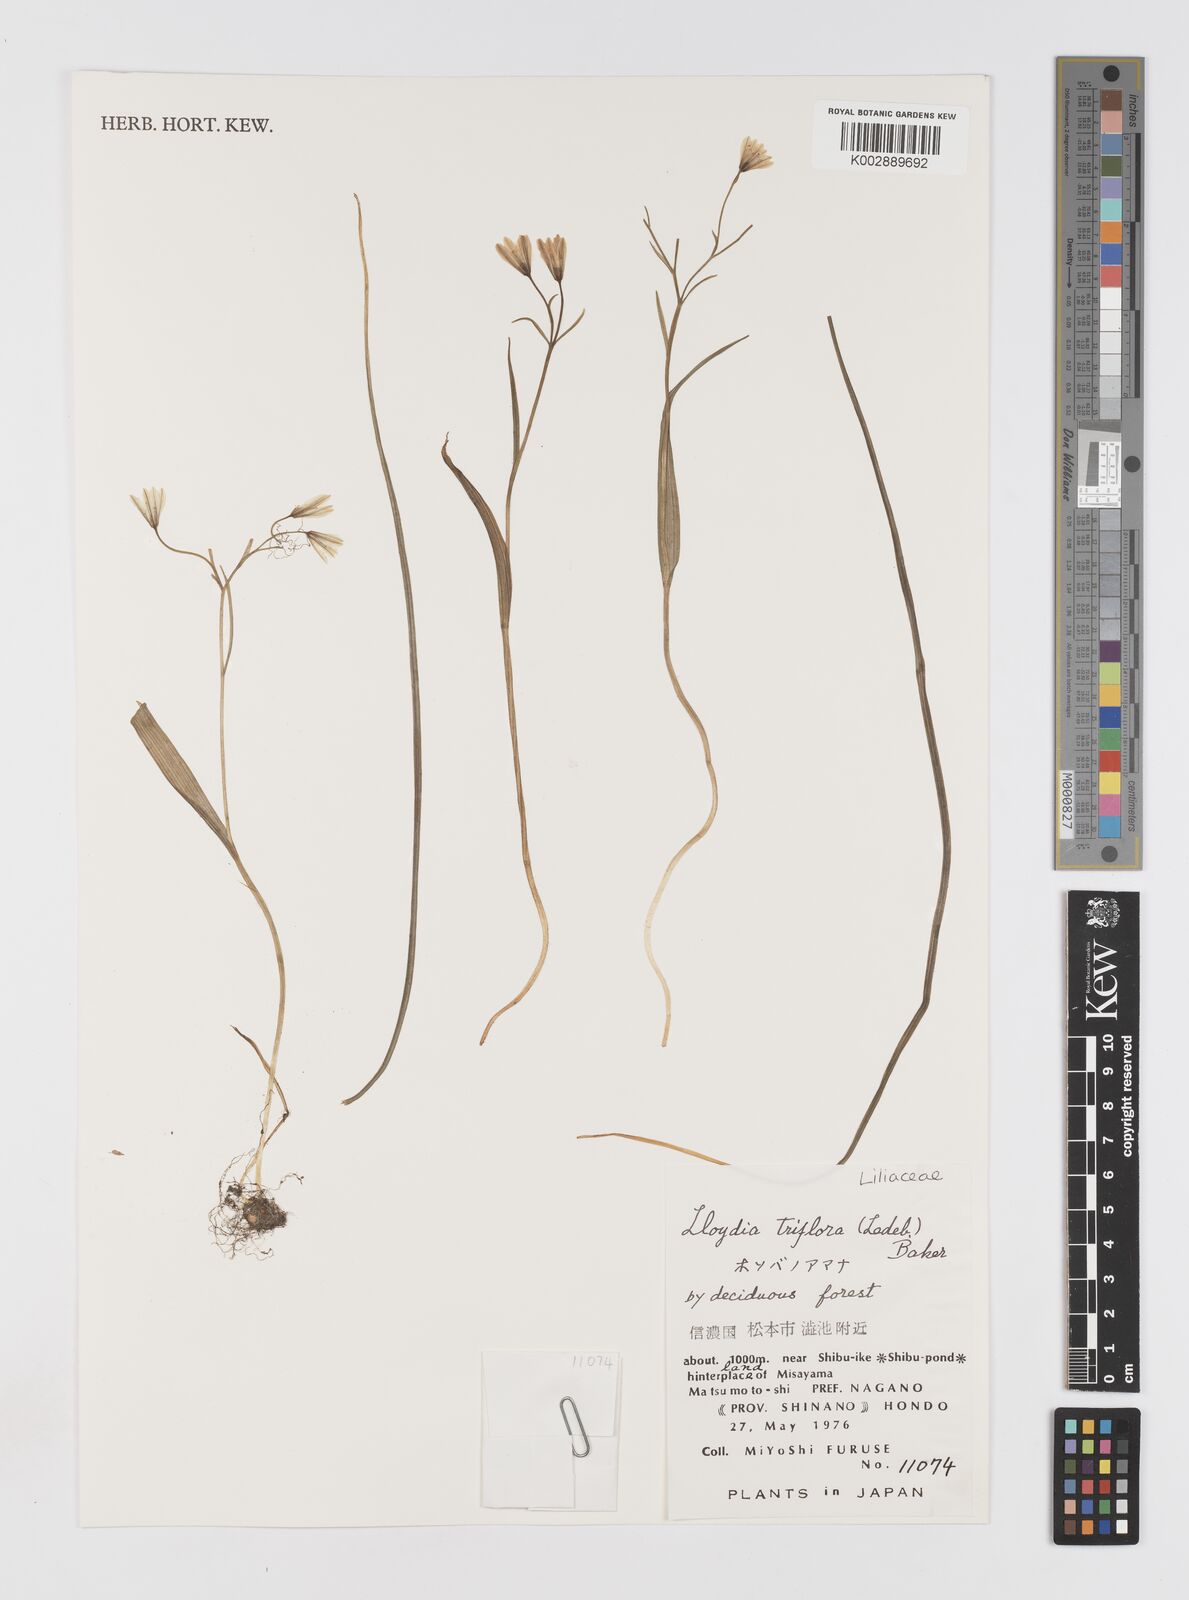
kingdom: Plantae
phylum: Tracheophyta
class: Liliopsida
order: Liliales
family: Liliaceae
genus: Gagea
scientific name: Gagea triflora
